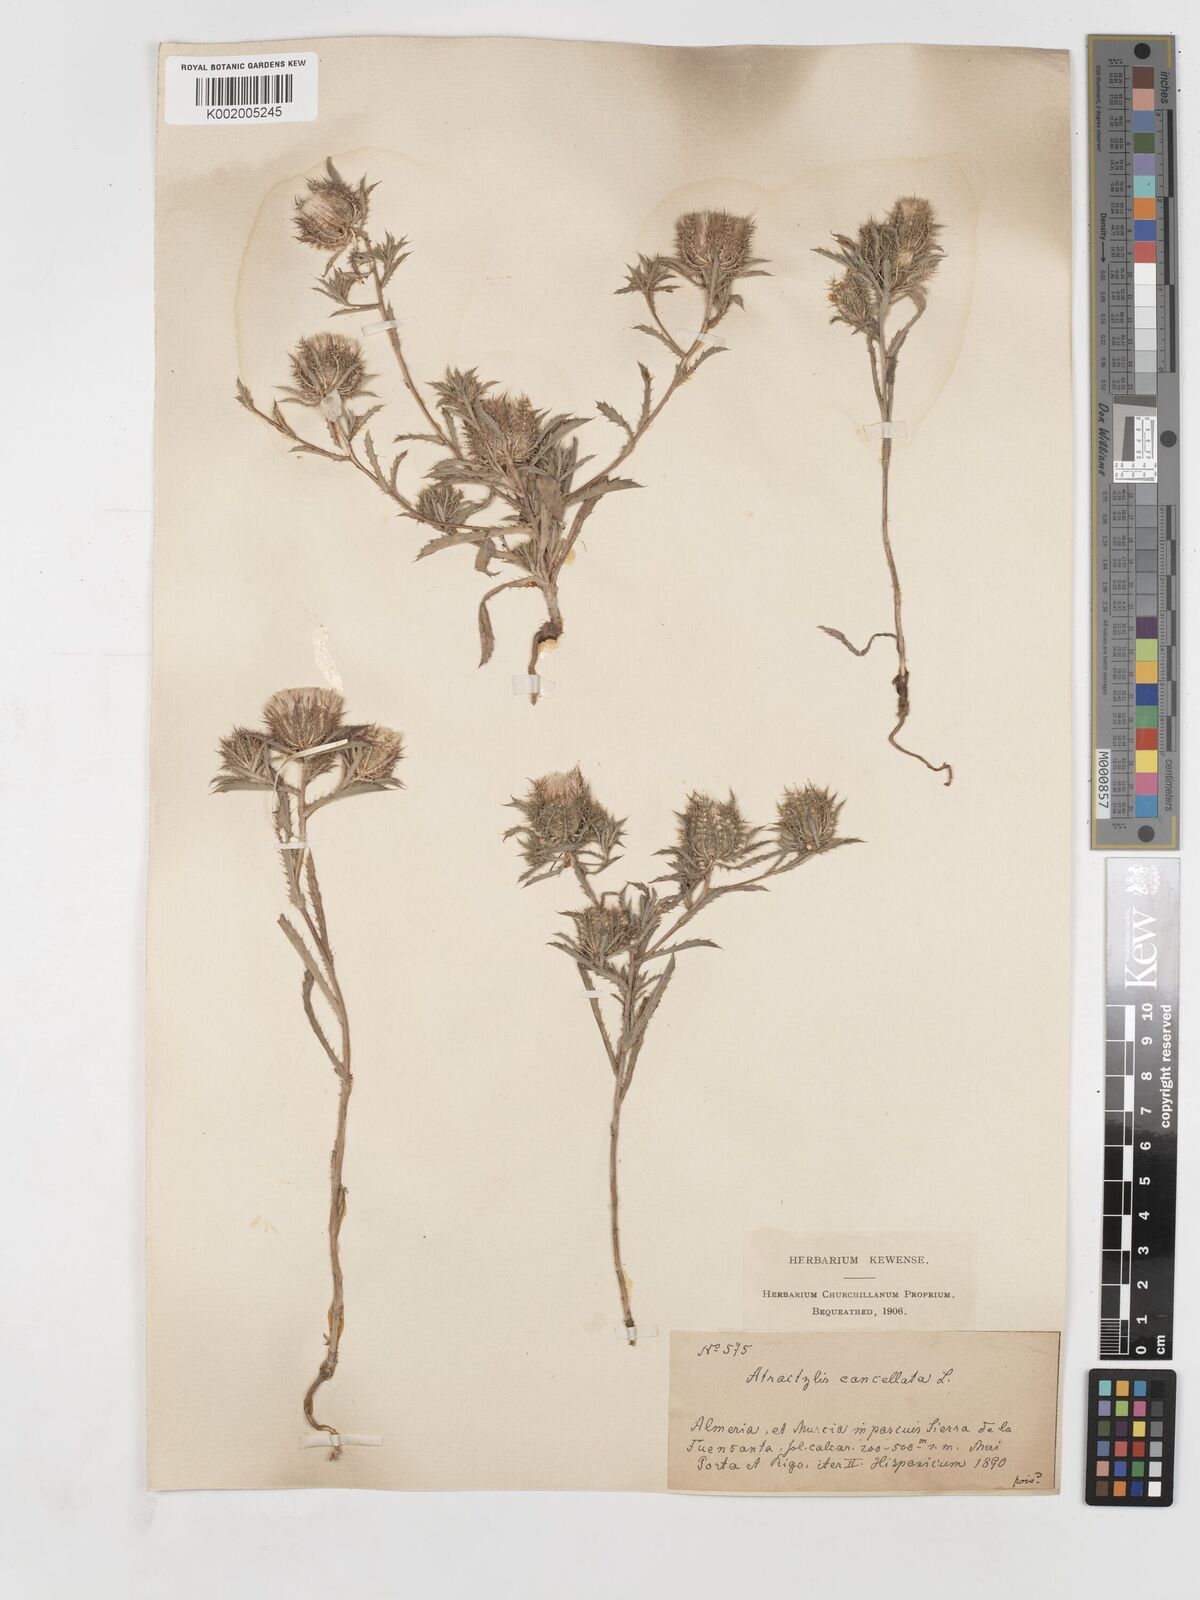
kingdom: Plantae
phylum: Tracheophyta
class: Magnoliopsida
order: Asterales
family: Asteraceae
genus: Atractylis
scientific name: Atractylis cancellata
